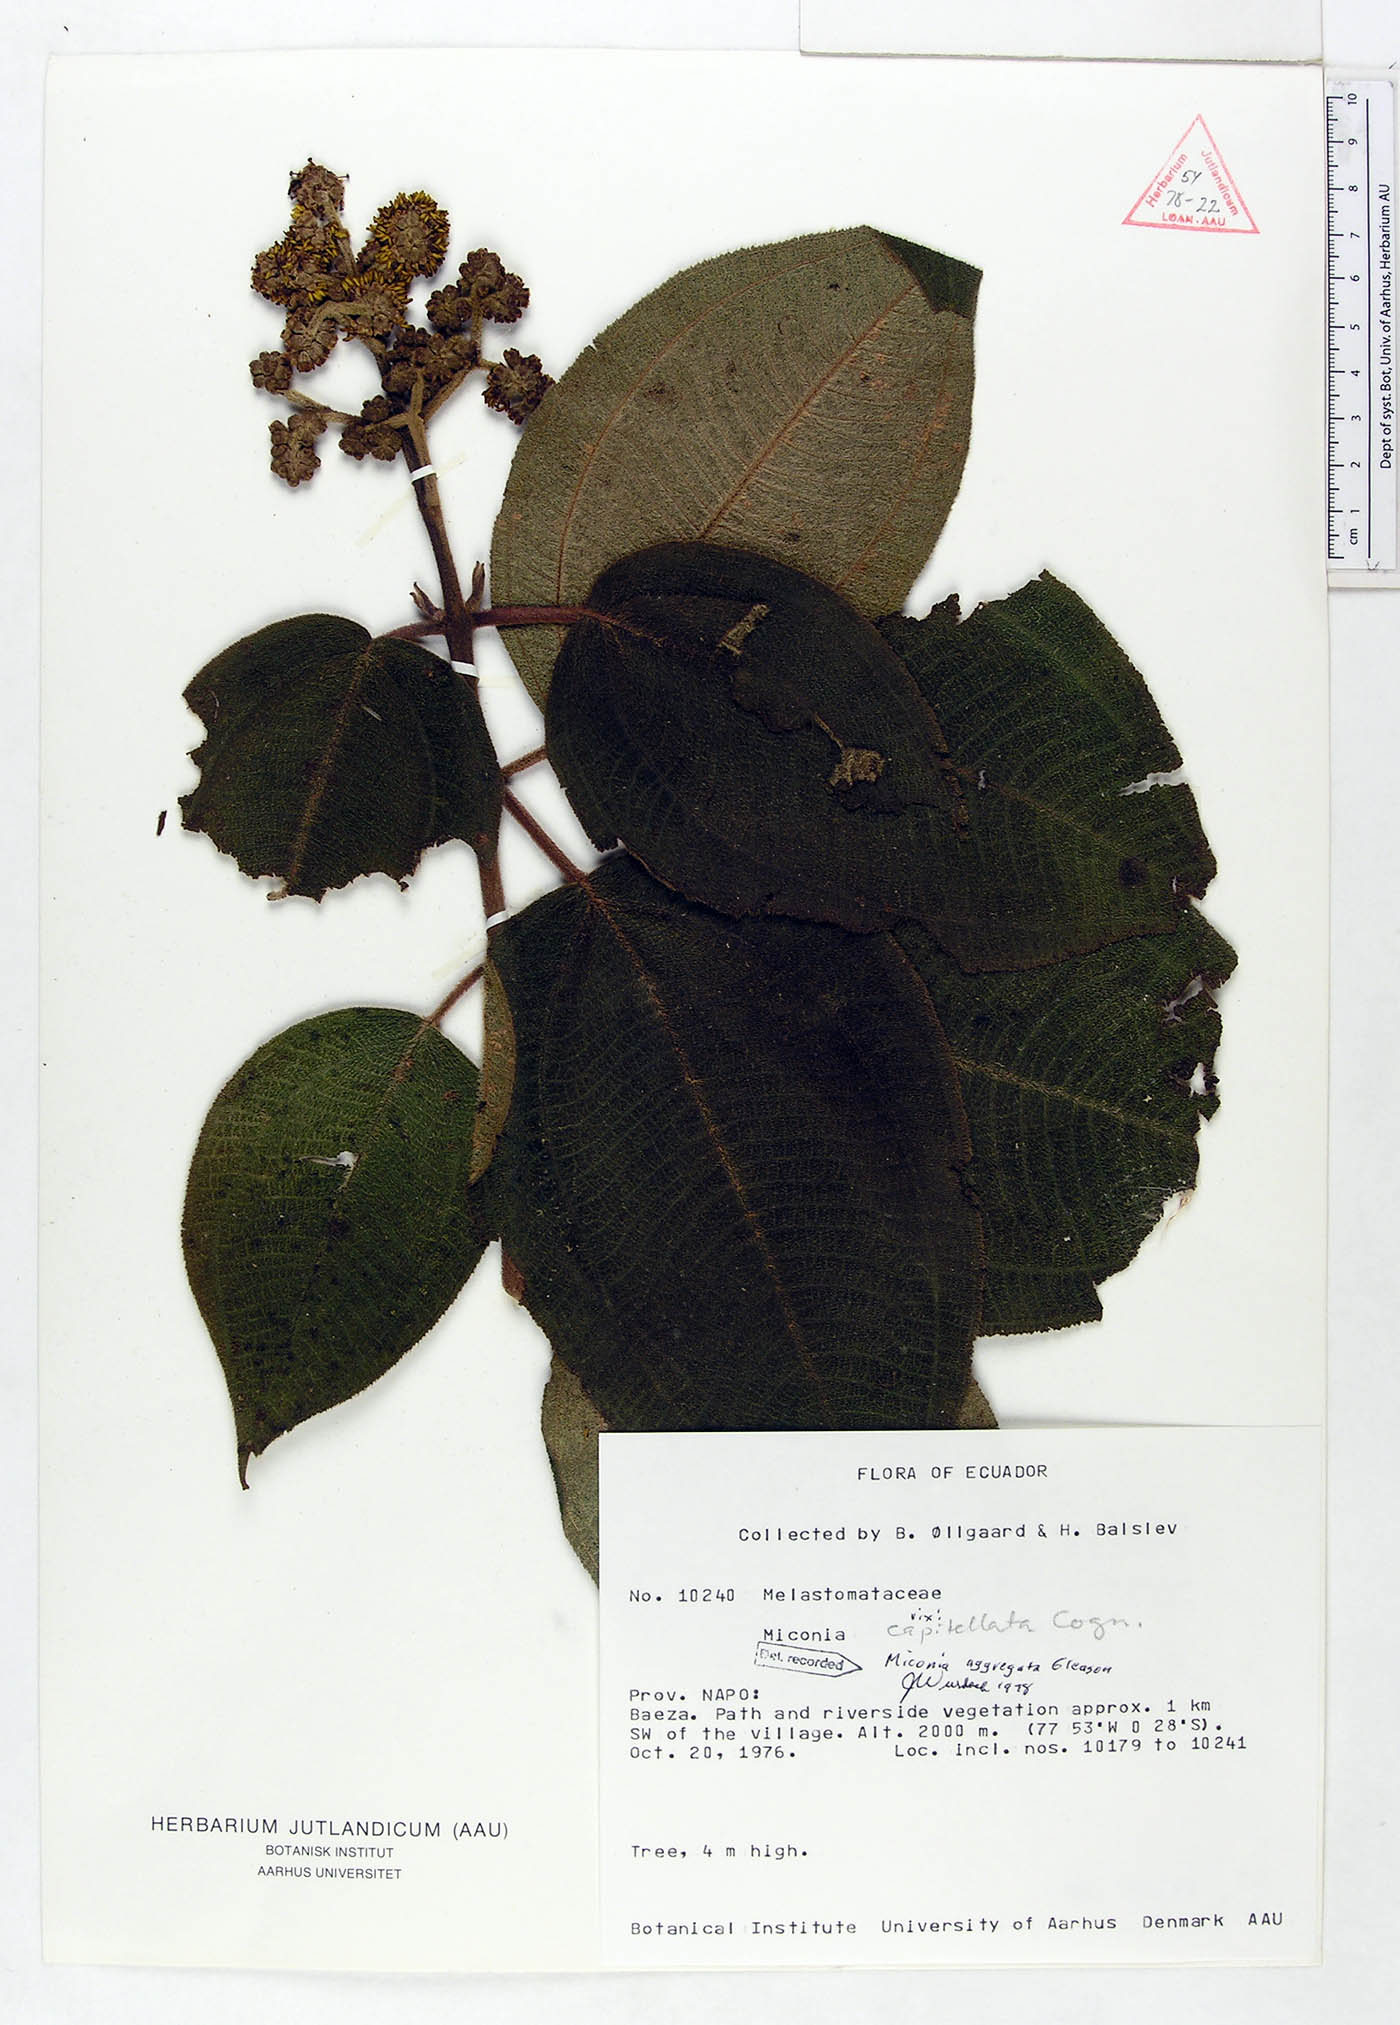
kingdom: Plantae
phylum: Tracheophyta
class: Magnoliopsida
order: Myrtales
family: Melastomataceae
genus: Miconia
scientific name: Miconia aggregata
